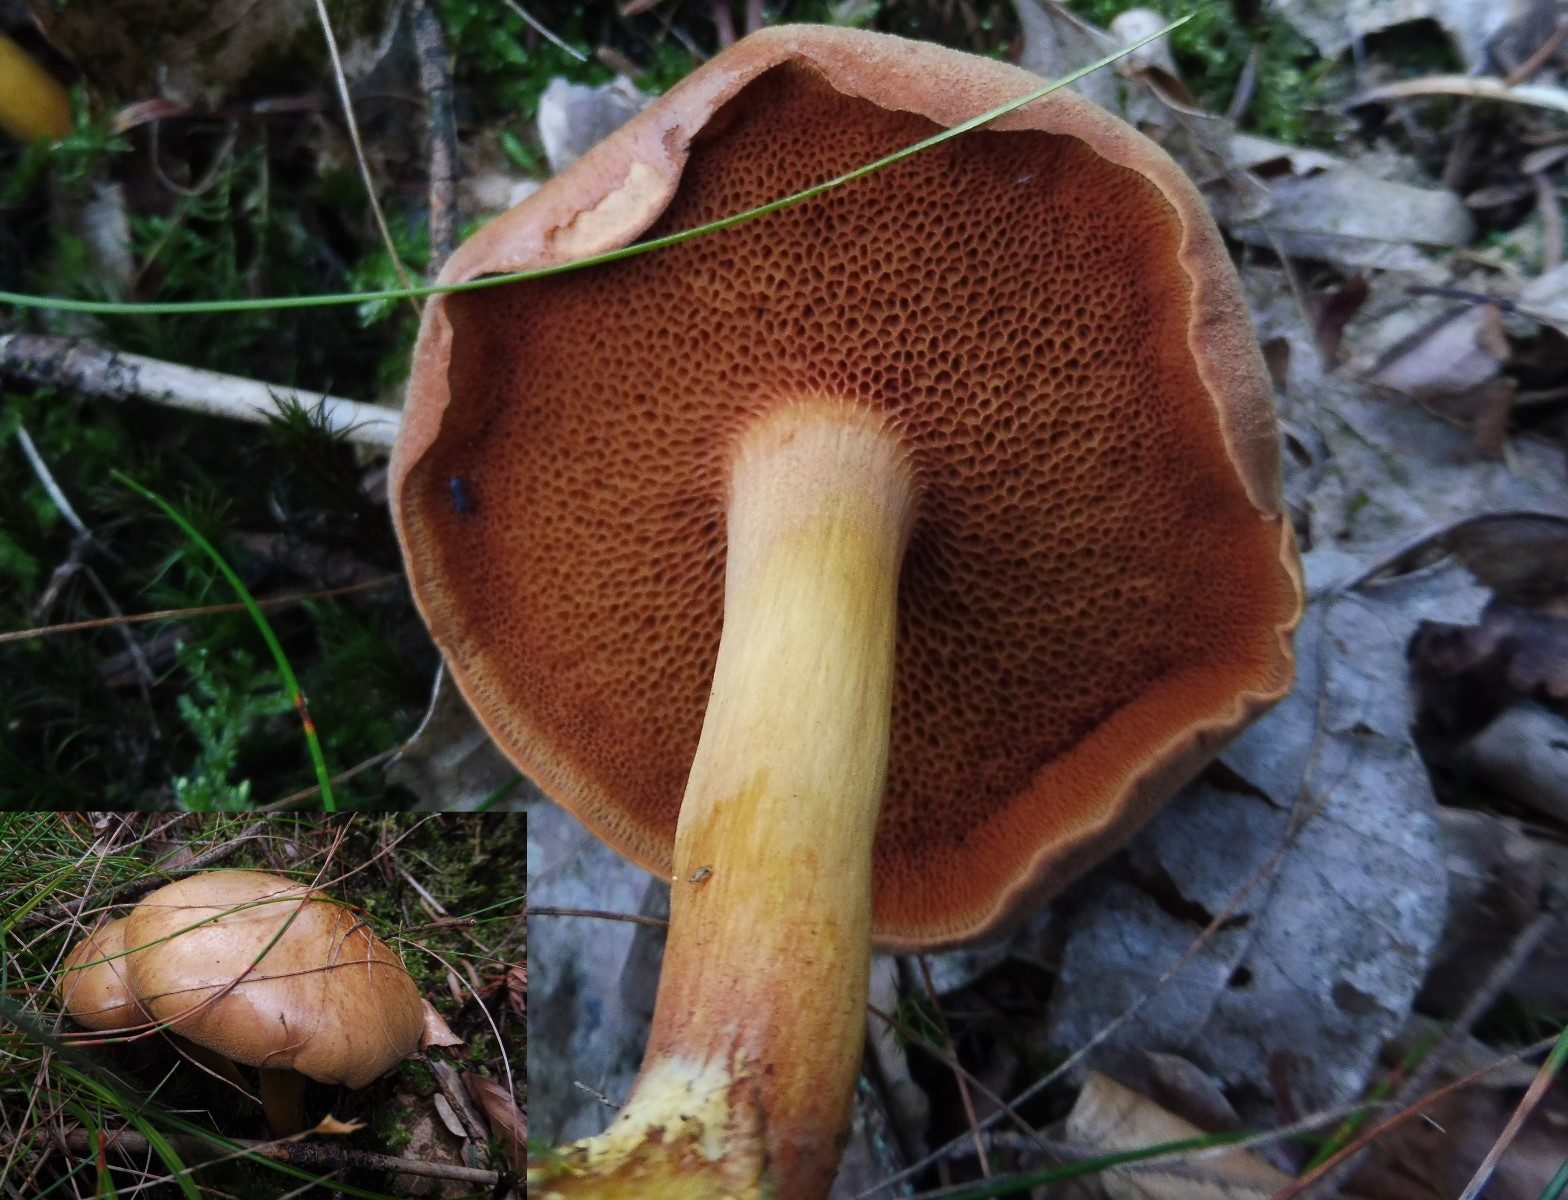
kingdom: Fungi
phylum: Basidiomycota
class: Agaricomycetes
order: Boletales
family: Boletaceae
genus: Chalciporus
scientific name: Chalciporus piperatus
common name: peberrørhat
